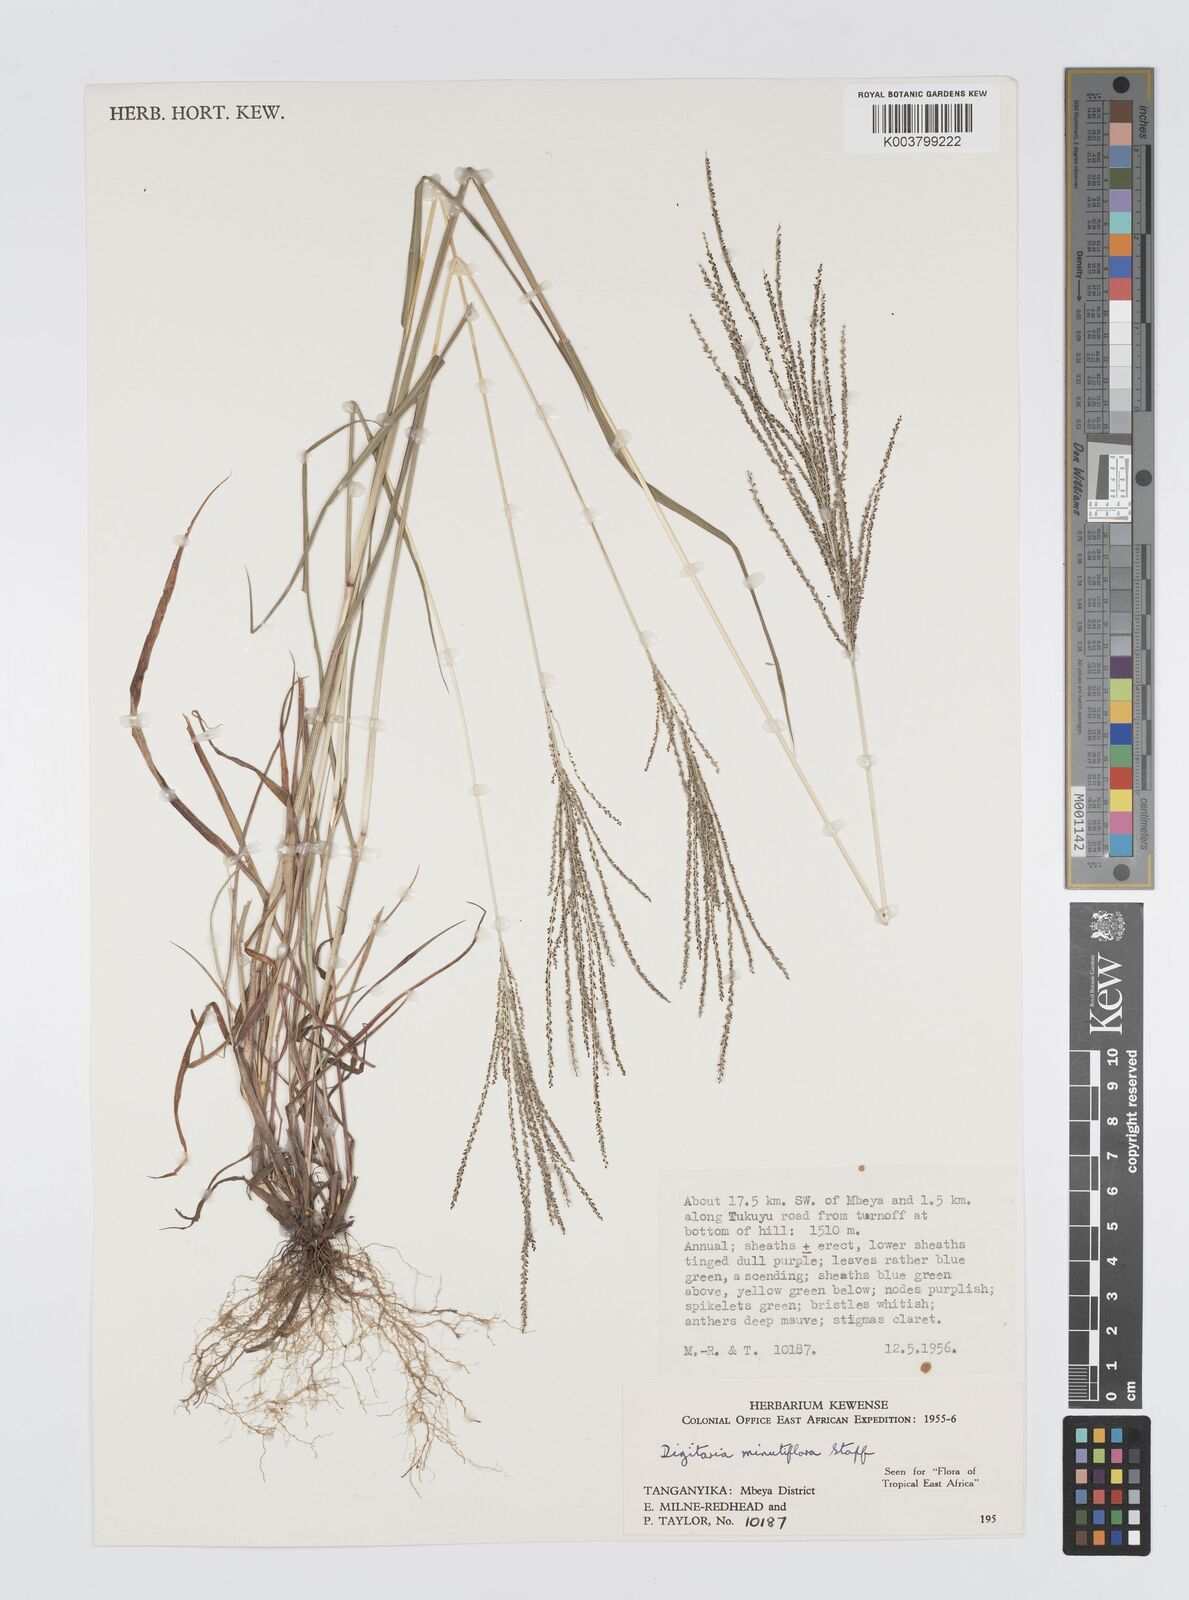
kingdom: Plantae
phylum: Tracheophyta
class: Liliopsida
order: Poales
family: Poaceae
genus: Digitaria
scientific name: Digitaria pseudodiagonalis
